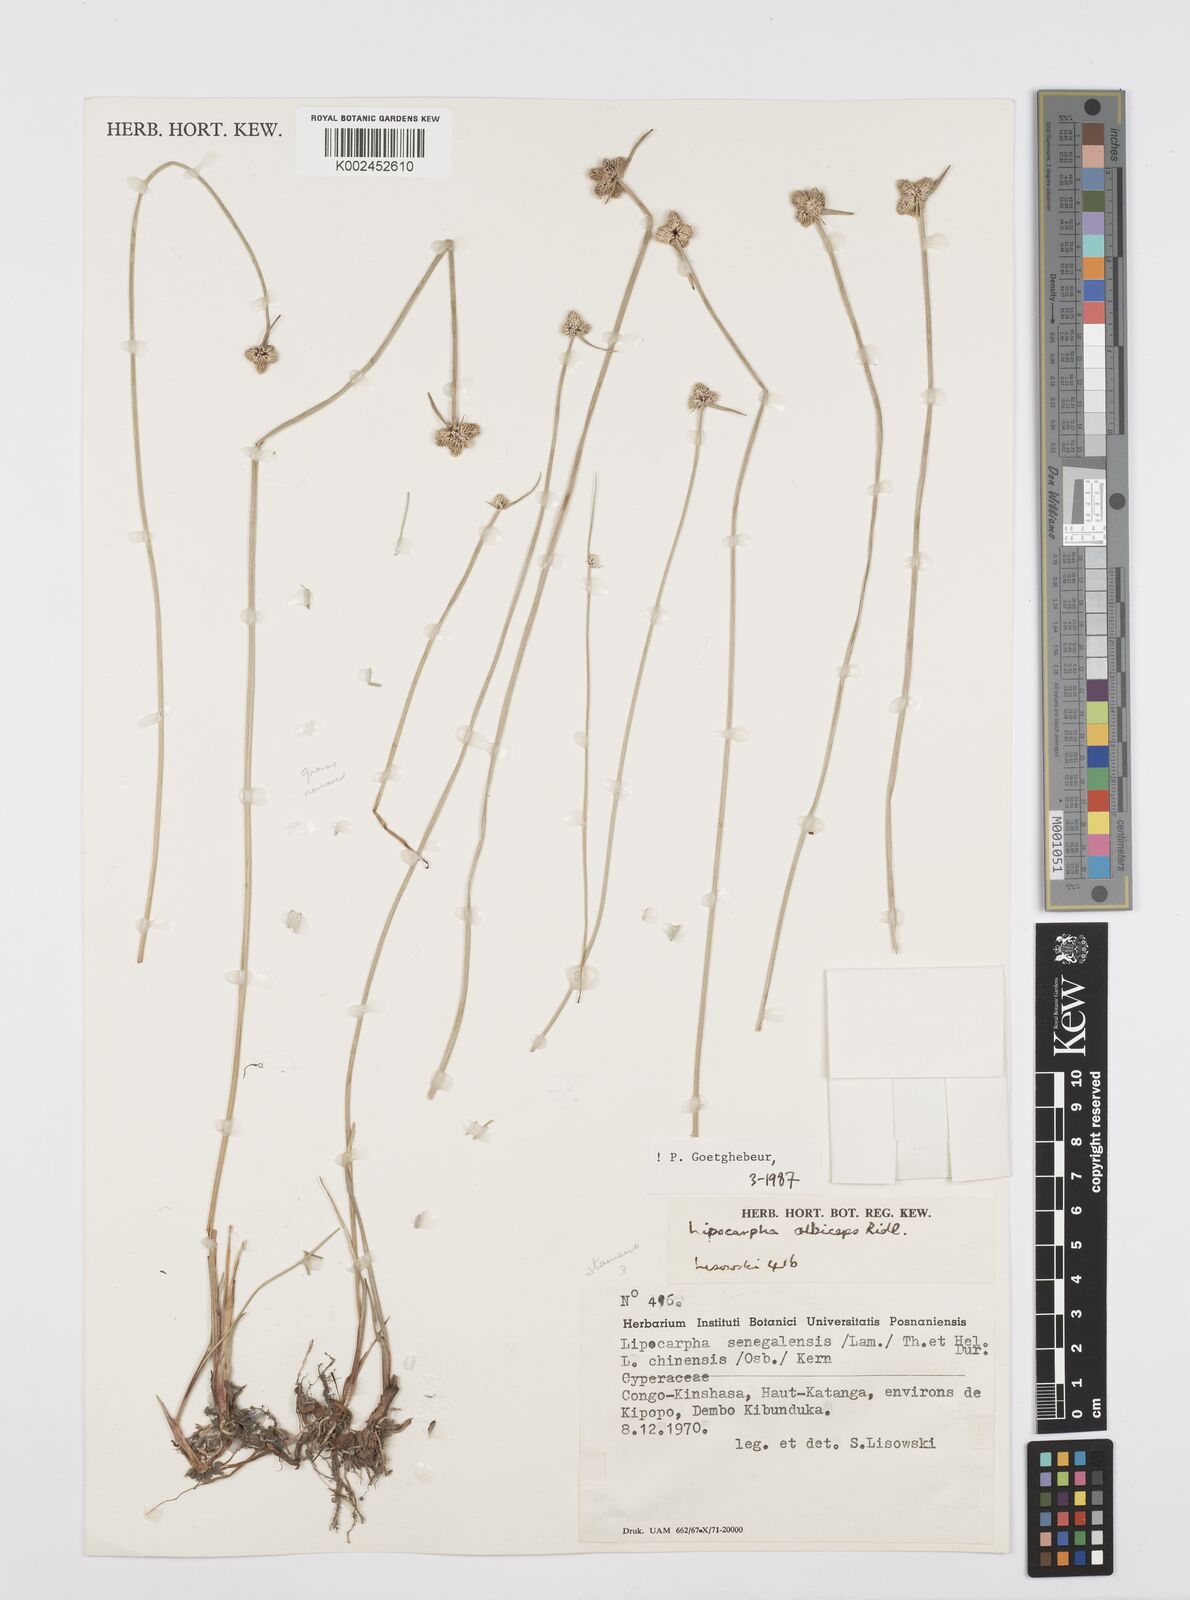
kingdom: Plantae
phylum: Tracheophyta
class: Liliopsida
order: Poales
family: Cyperaceae
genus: Cyperus
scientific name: Cyperus albiceps
